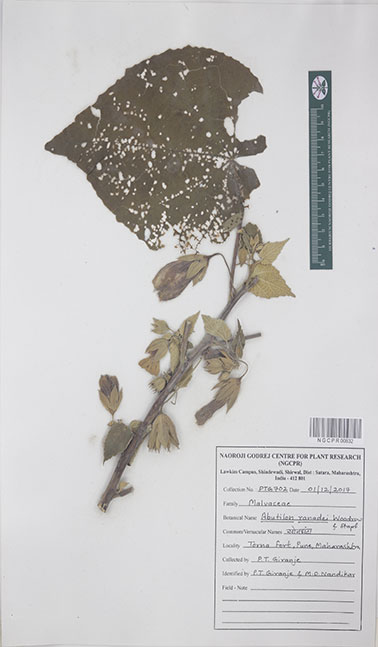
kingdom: Plantae
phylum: Tracheophyta
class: Magnoliopsida
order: Malvales
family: Malvaceae
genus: Abutilon
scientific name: Abutilon ranadei
